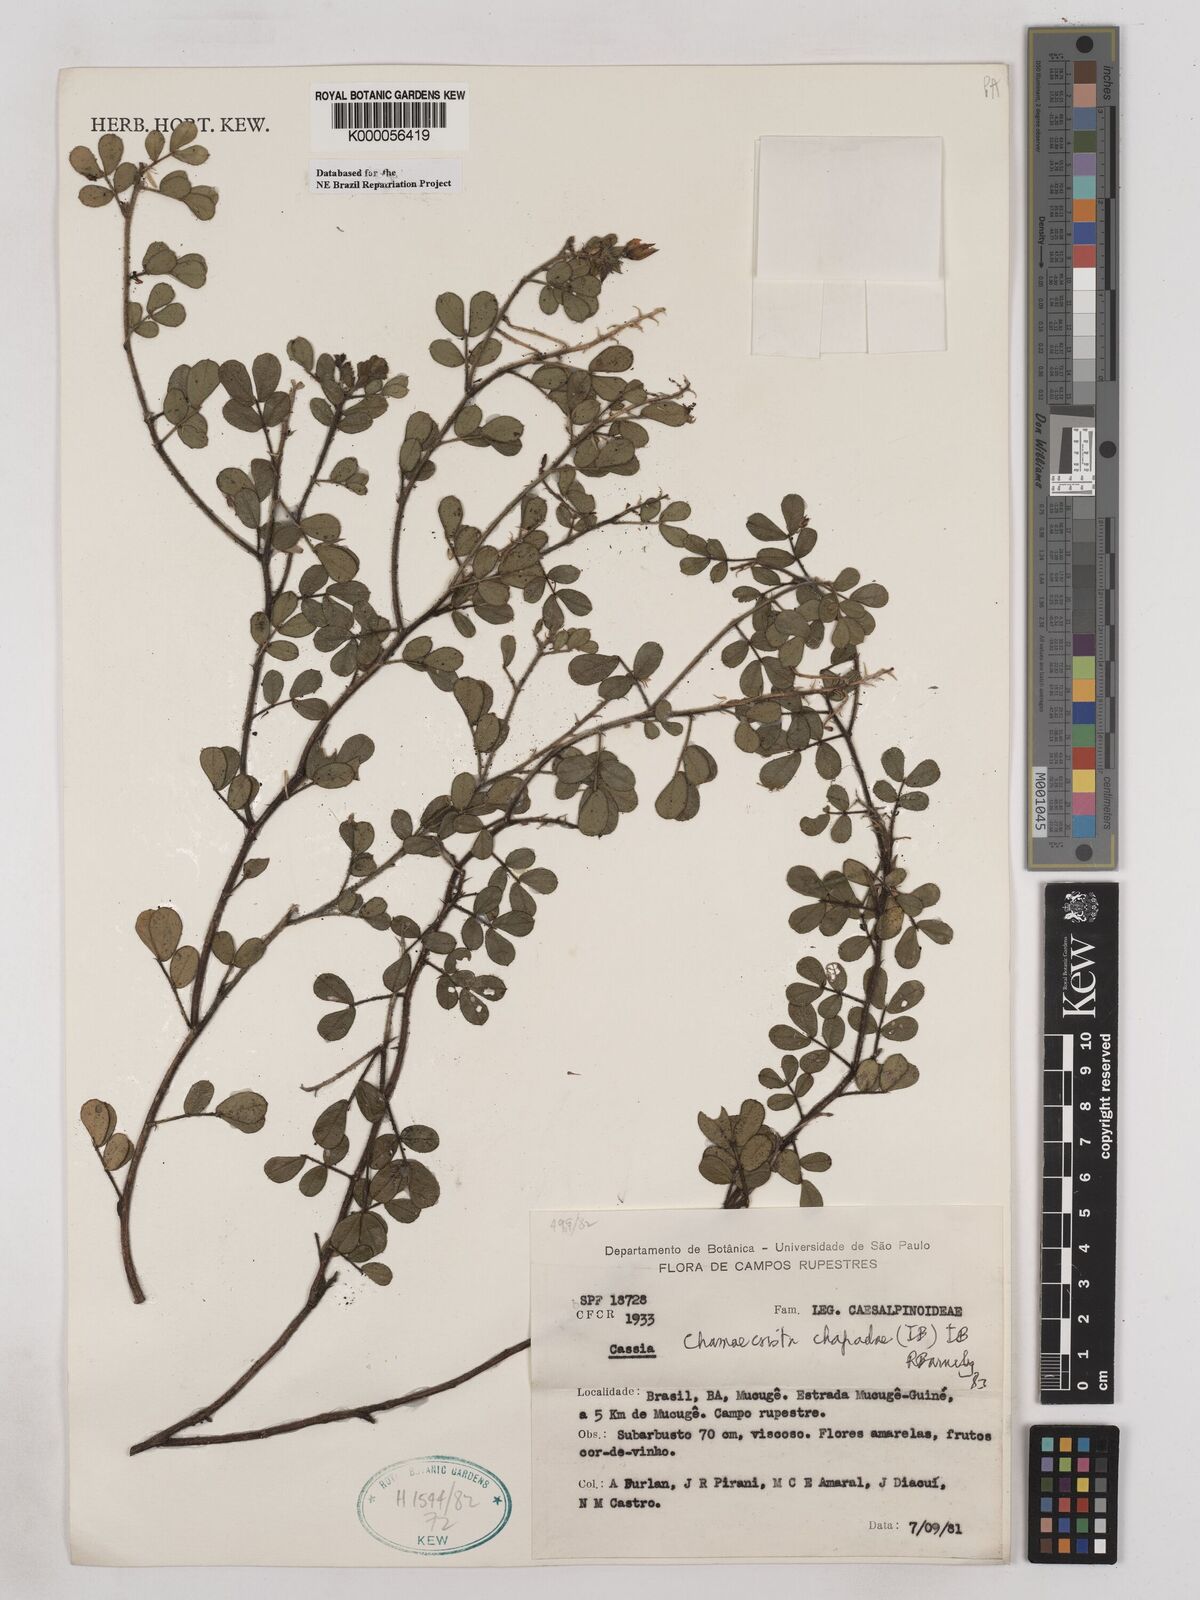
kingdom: Plantae
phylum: Tracheophyta
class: Magnoliopsida
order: Fabales
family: Fabaceae
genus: Chamaecrista
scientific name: Chamaecrista chapadae
